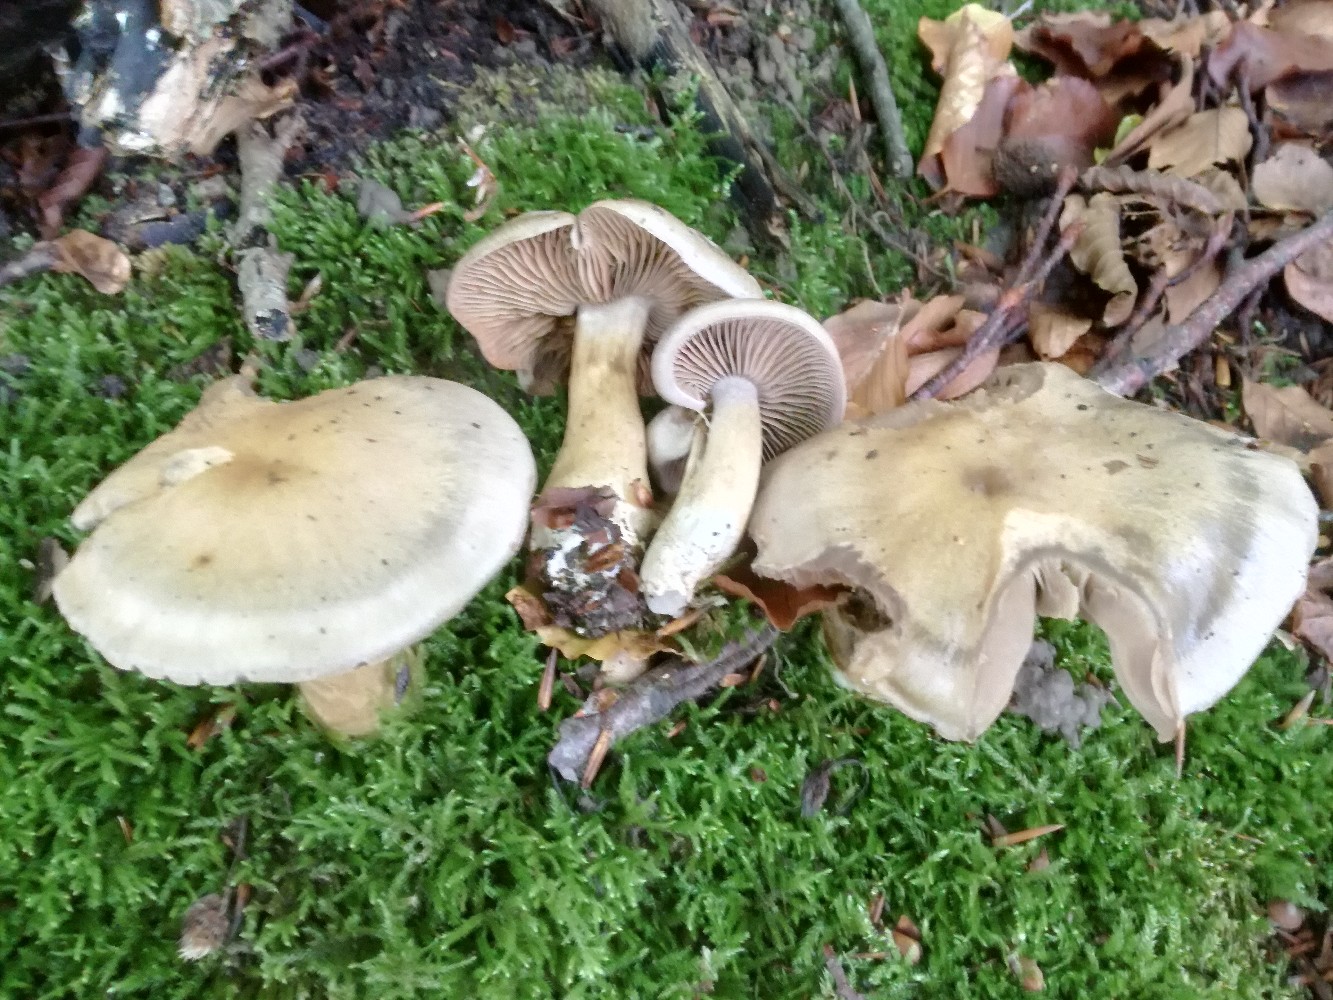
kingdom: Fungi
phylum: Basidiomycota
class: Agaricomycetes
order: Agaricales
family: Cortinariaceae
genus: Cortinarius
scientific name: Cortinarius
